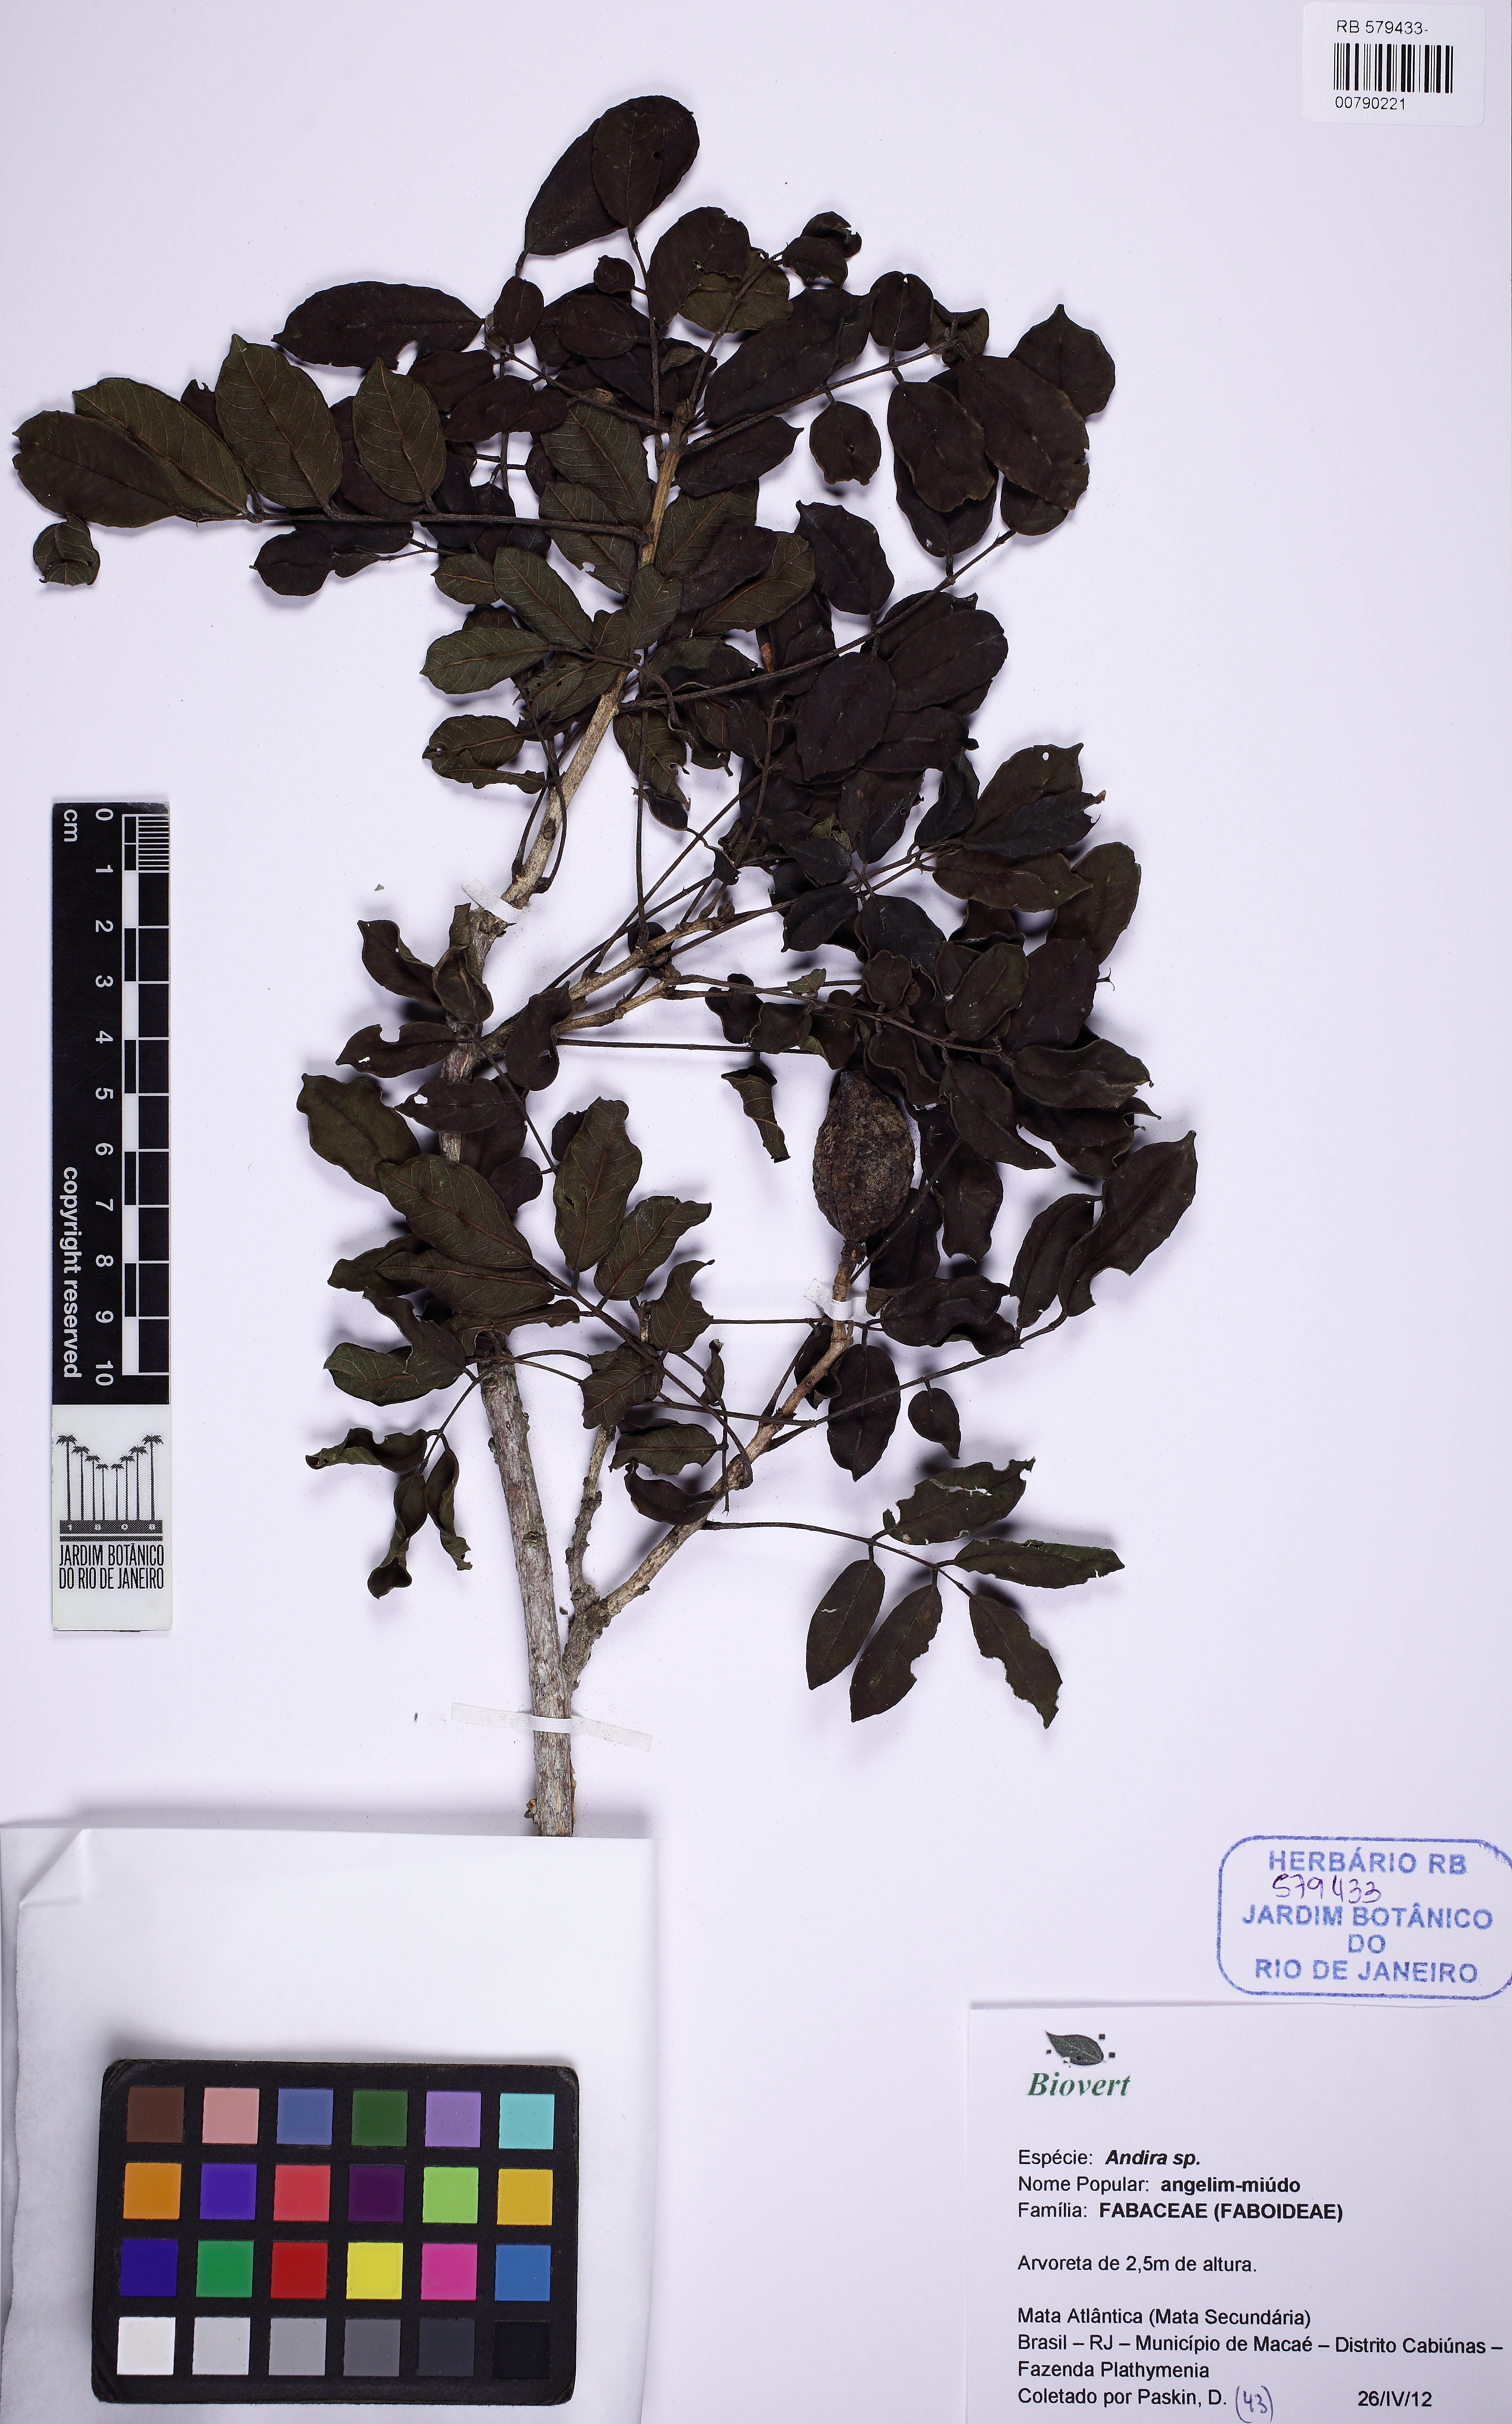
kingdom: Plantae
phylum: Tracheophyta
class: Magnoliopsida
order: Fabales
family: Fabaceae
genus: Andira
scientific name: Andira
